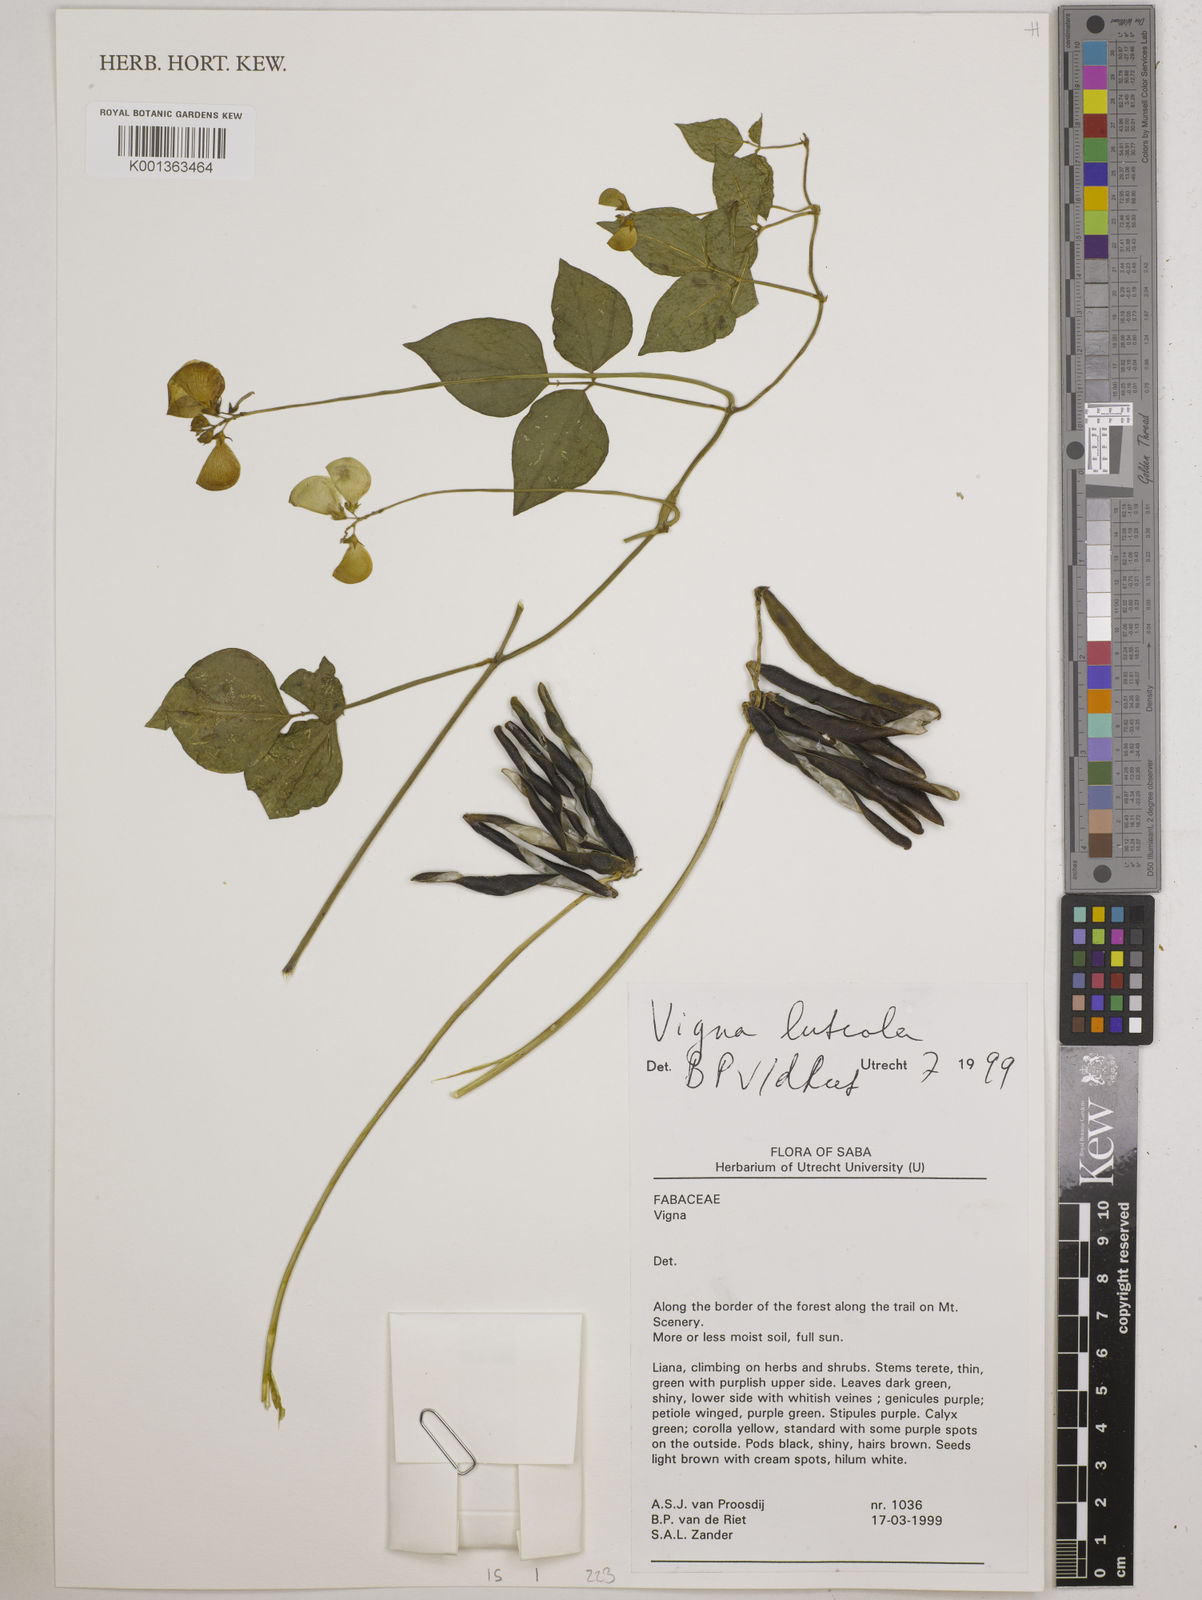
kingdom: Plantae
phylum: Tracheophyta
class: Magnoliopsida
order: Fabales
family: Fabaceae
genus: Vigna
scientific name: Vigna luteola
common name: Hairypod cowpea
